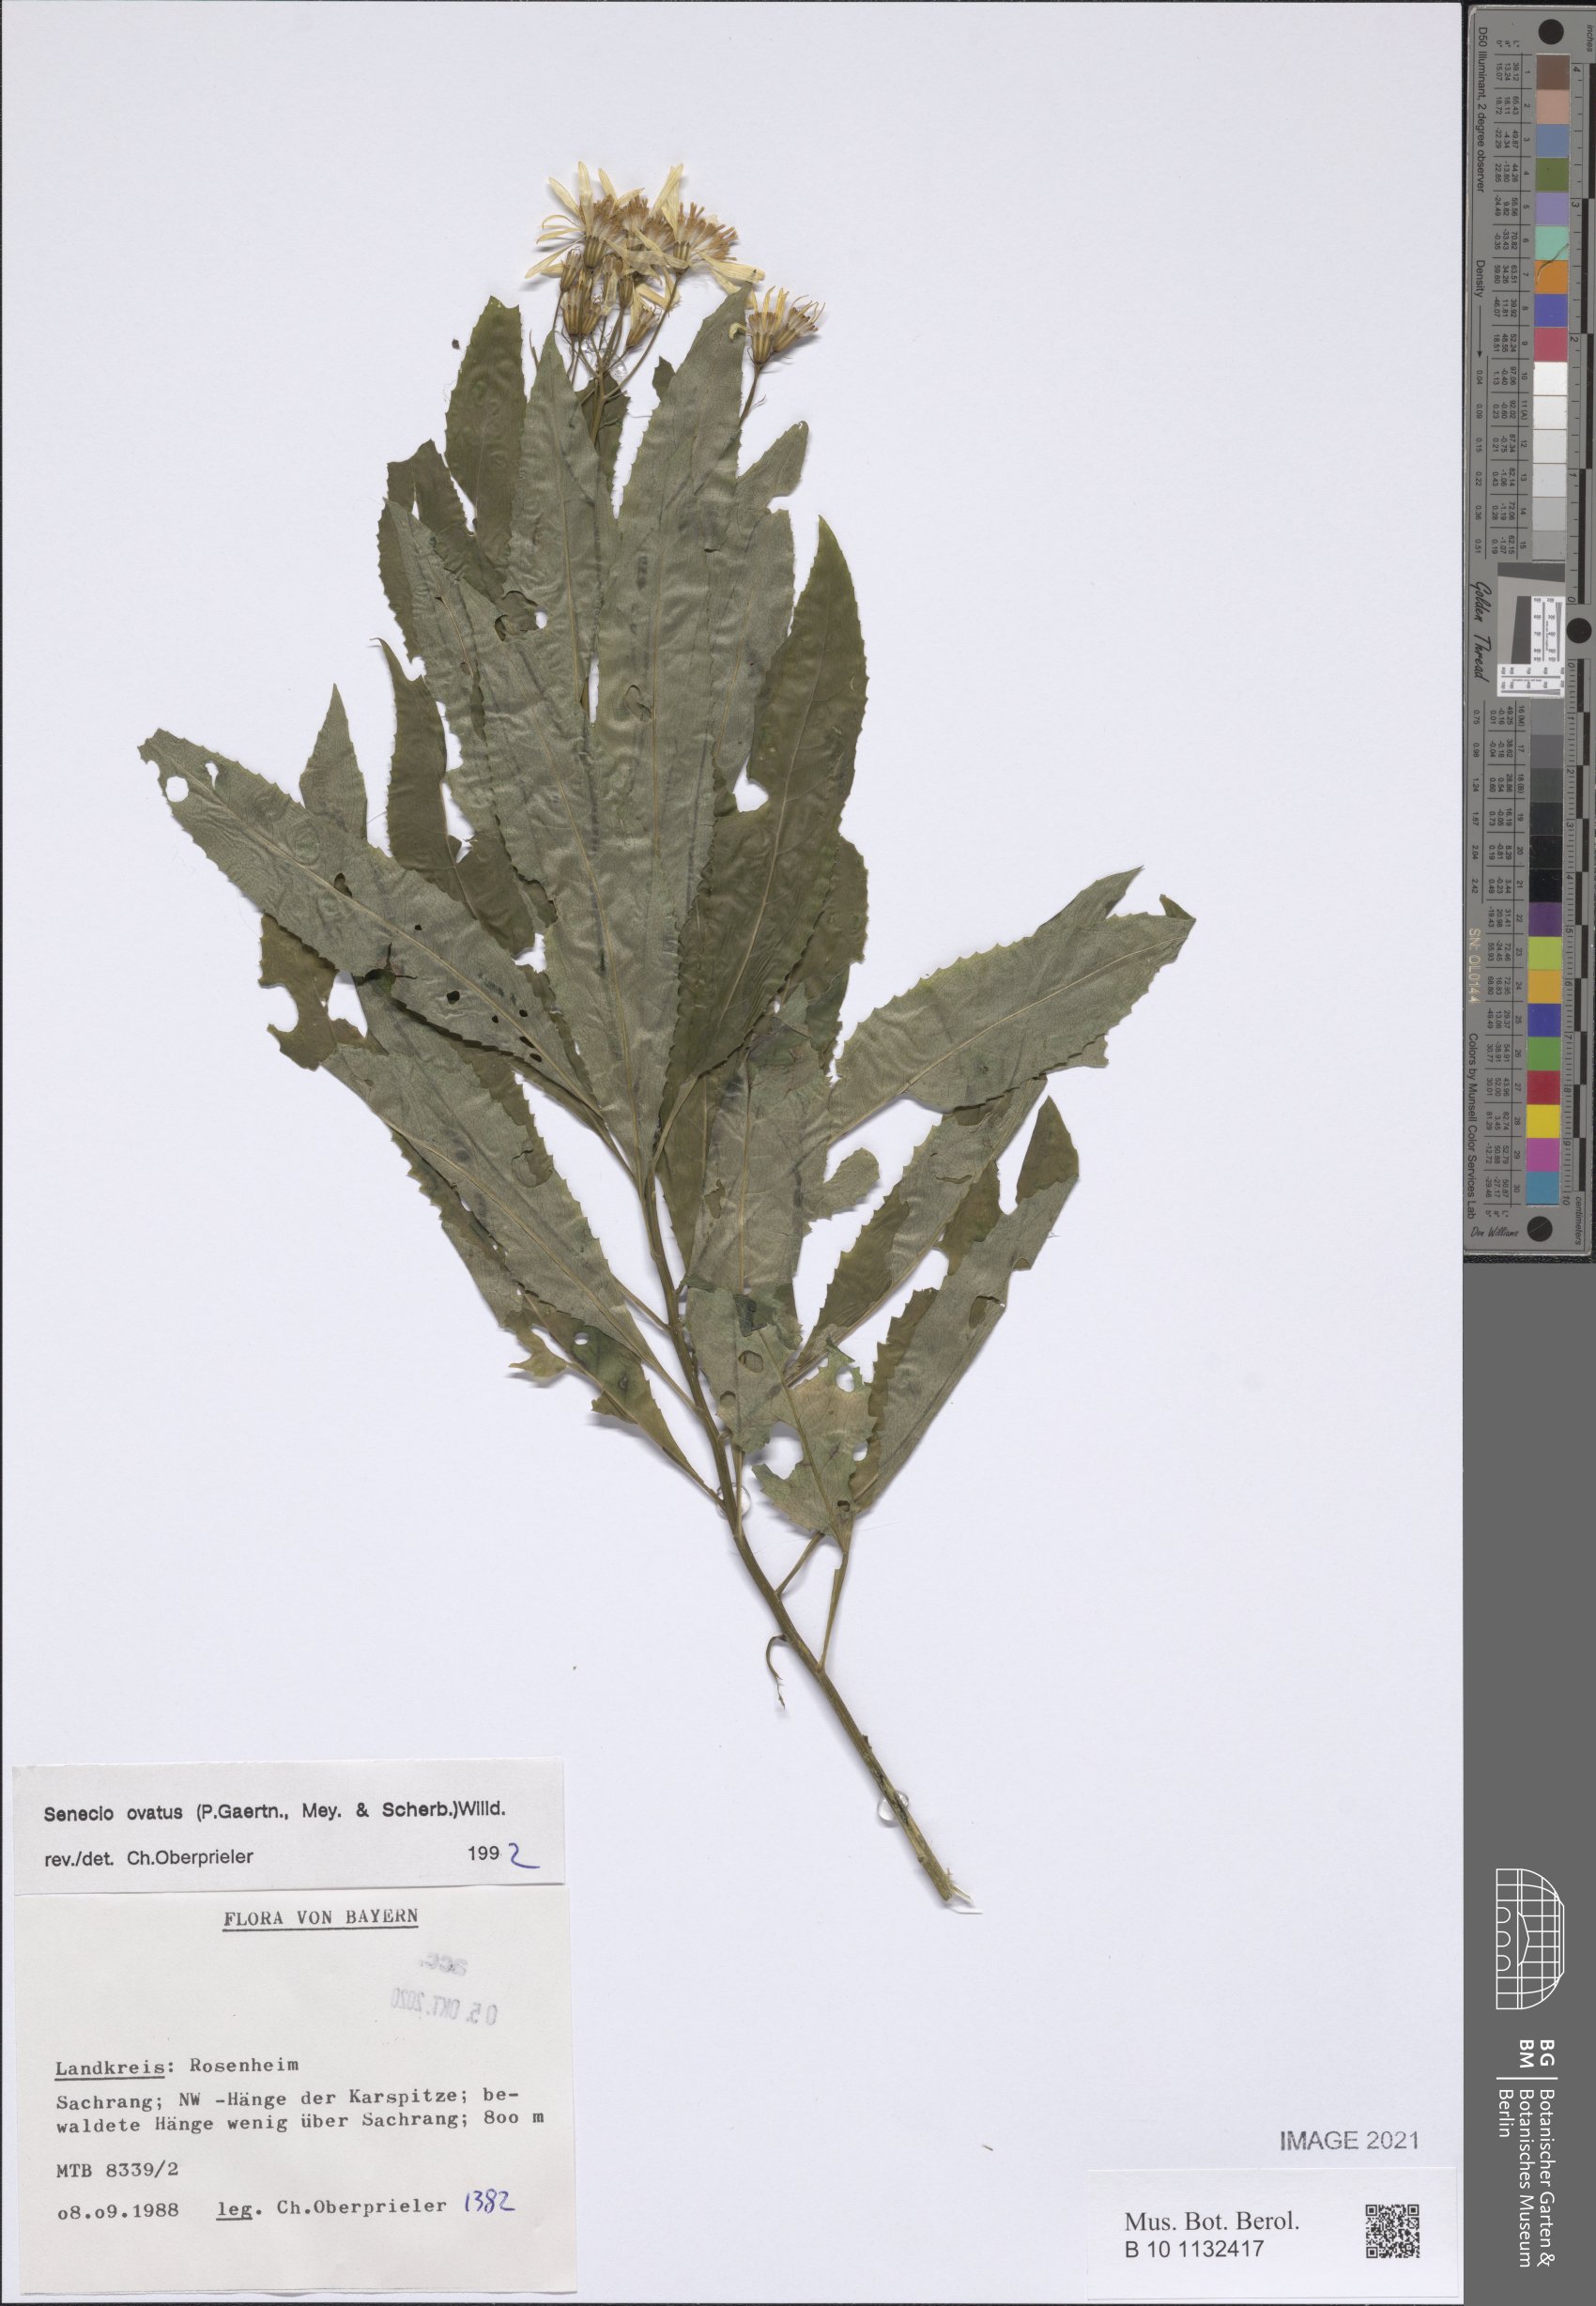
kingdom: Plantae
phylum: Tracheophyta
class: Magnoliopsida
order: Asterales
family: Asteraceae
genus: Senecio
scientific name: Senecio ovatus
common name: Wood ragwort
